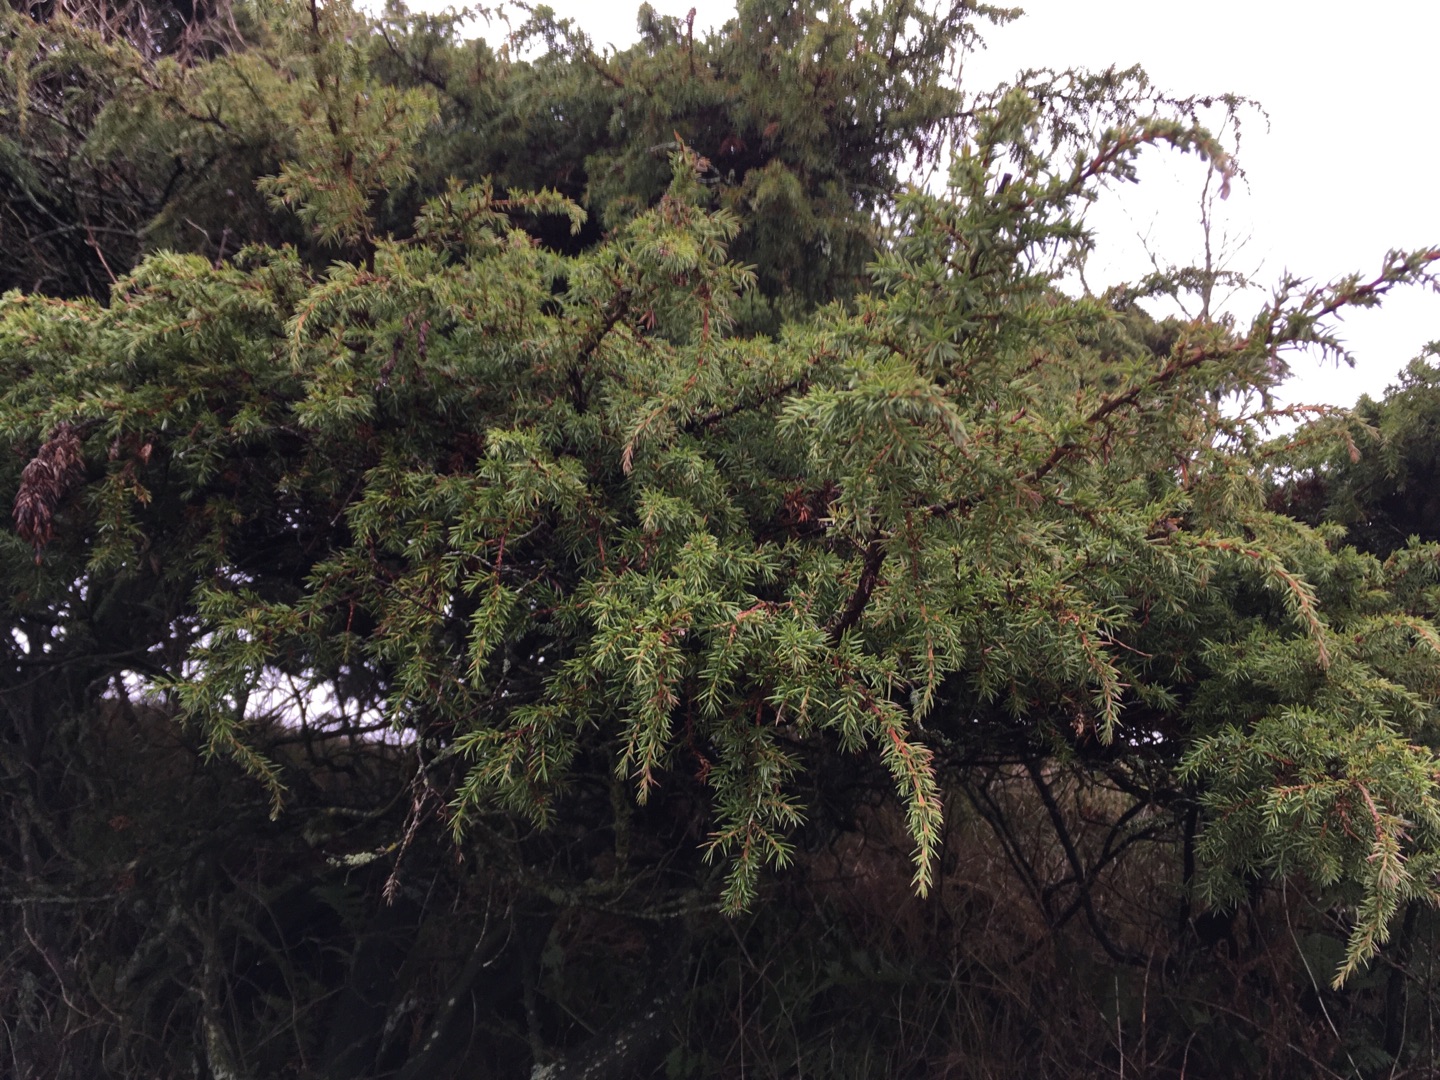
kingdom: Plantae
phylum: Tracheophyta
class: Pinopsida
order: Pinales
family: Cupressaceae
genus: Juniperus
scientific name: Juniperus communis
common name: Almindelig ene
